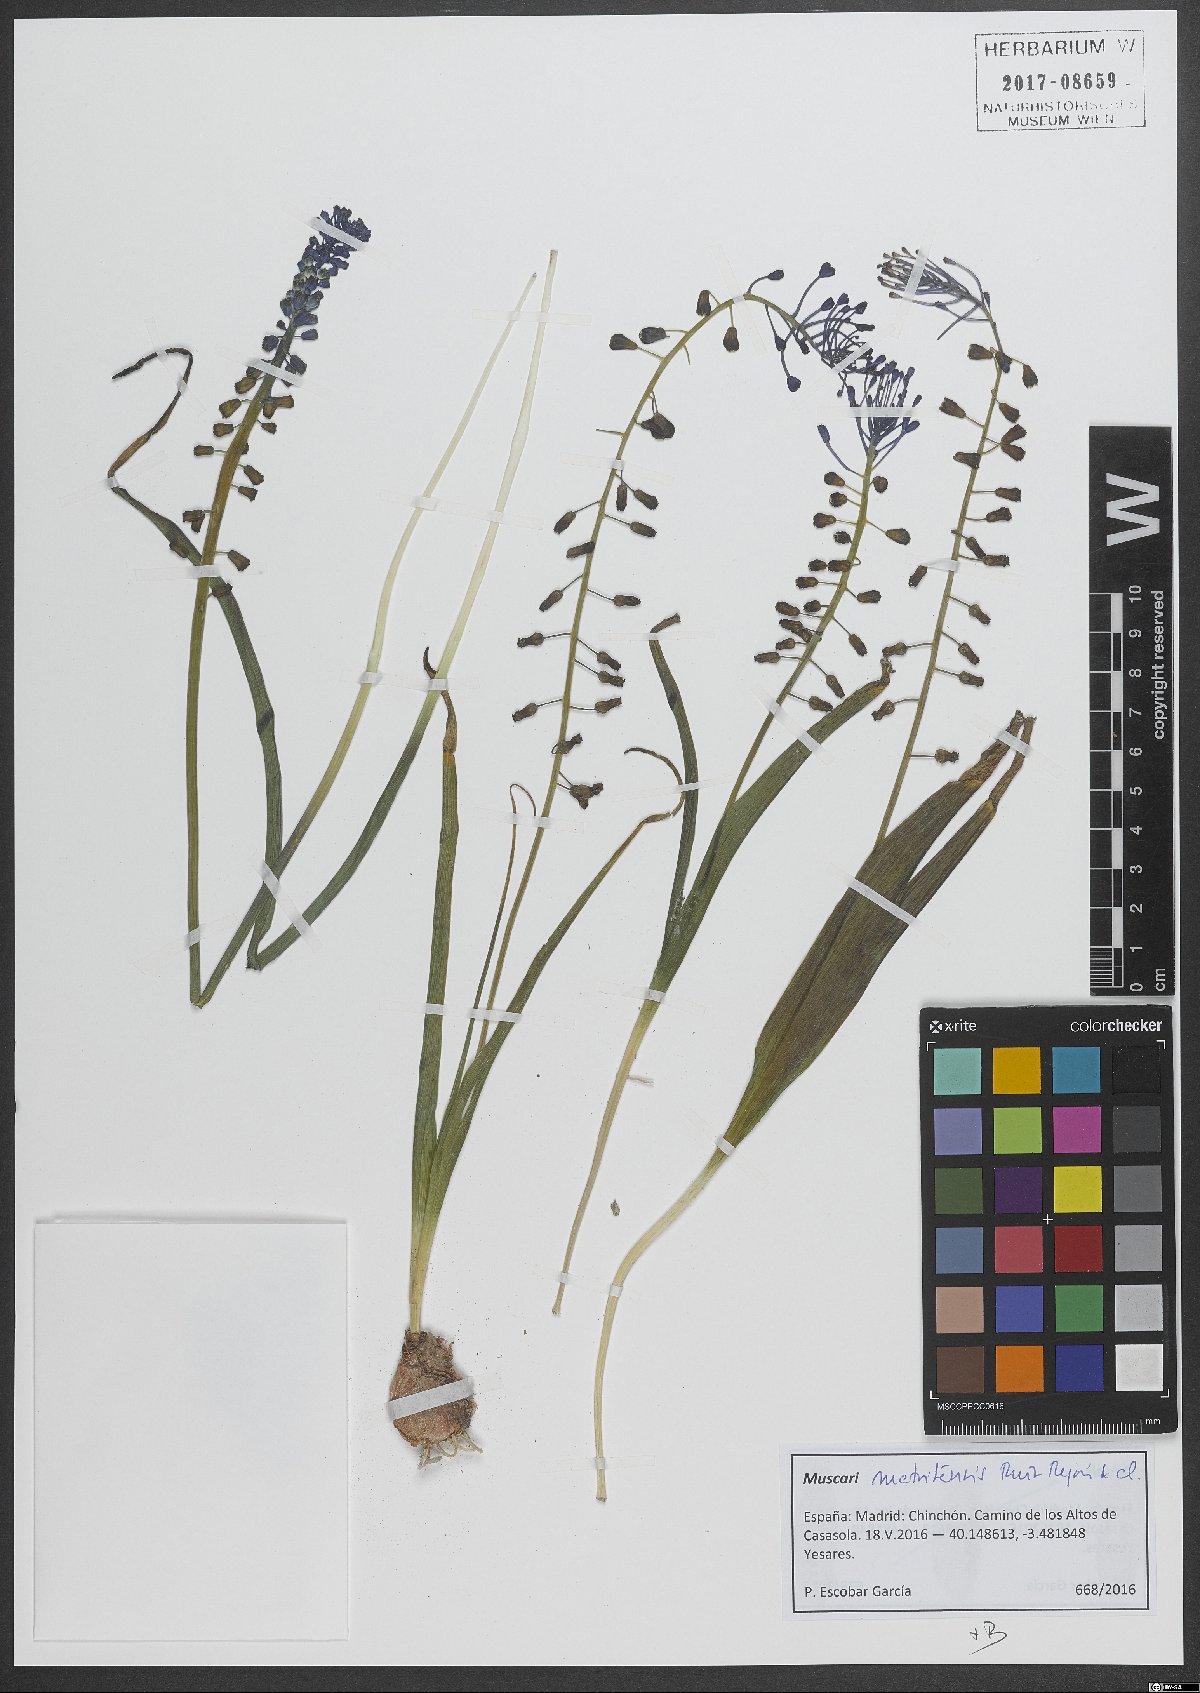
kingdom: Plantae
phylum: Tracheophyta
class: Liliopsida
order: Asparagales
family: Asparagaceae
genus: Muscari
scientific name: Muscari matritense
